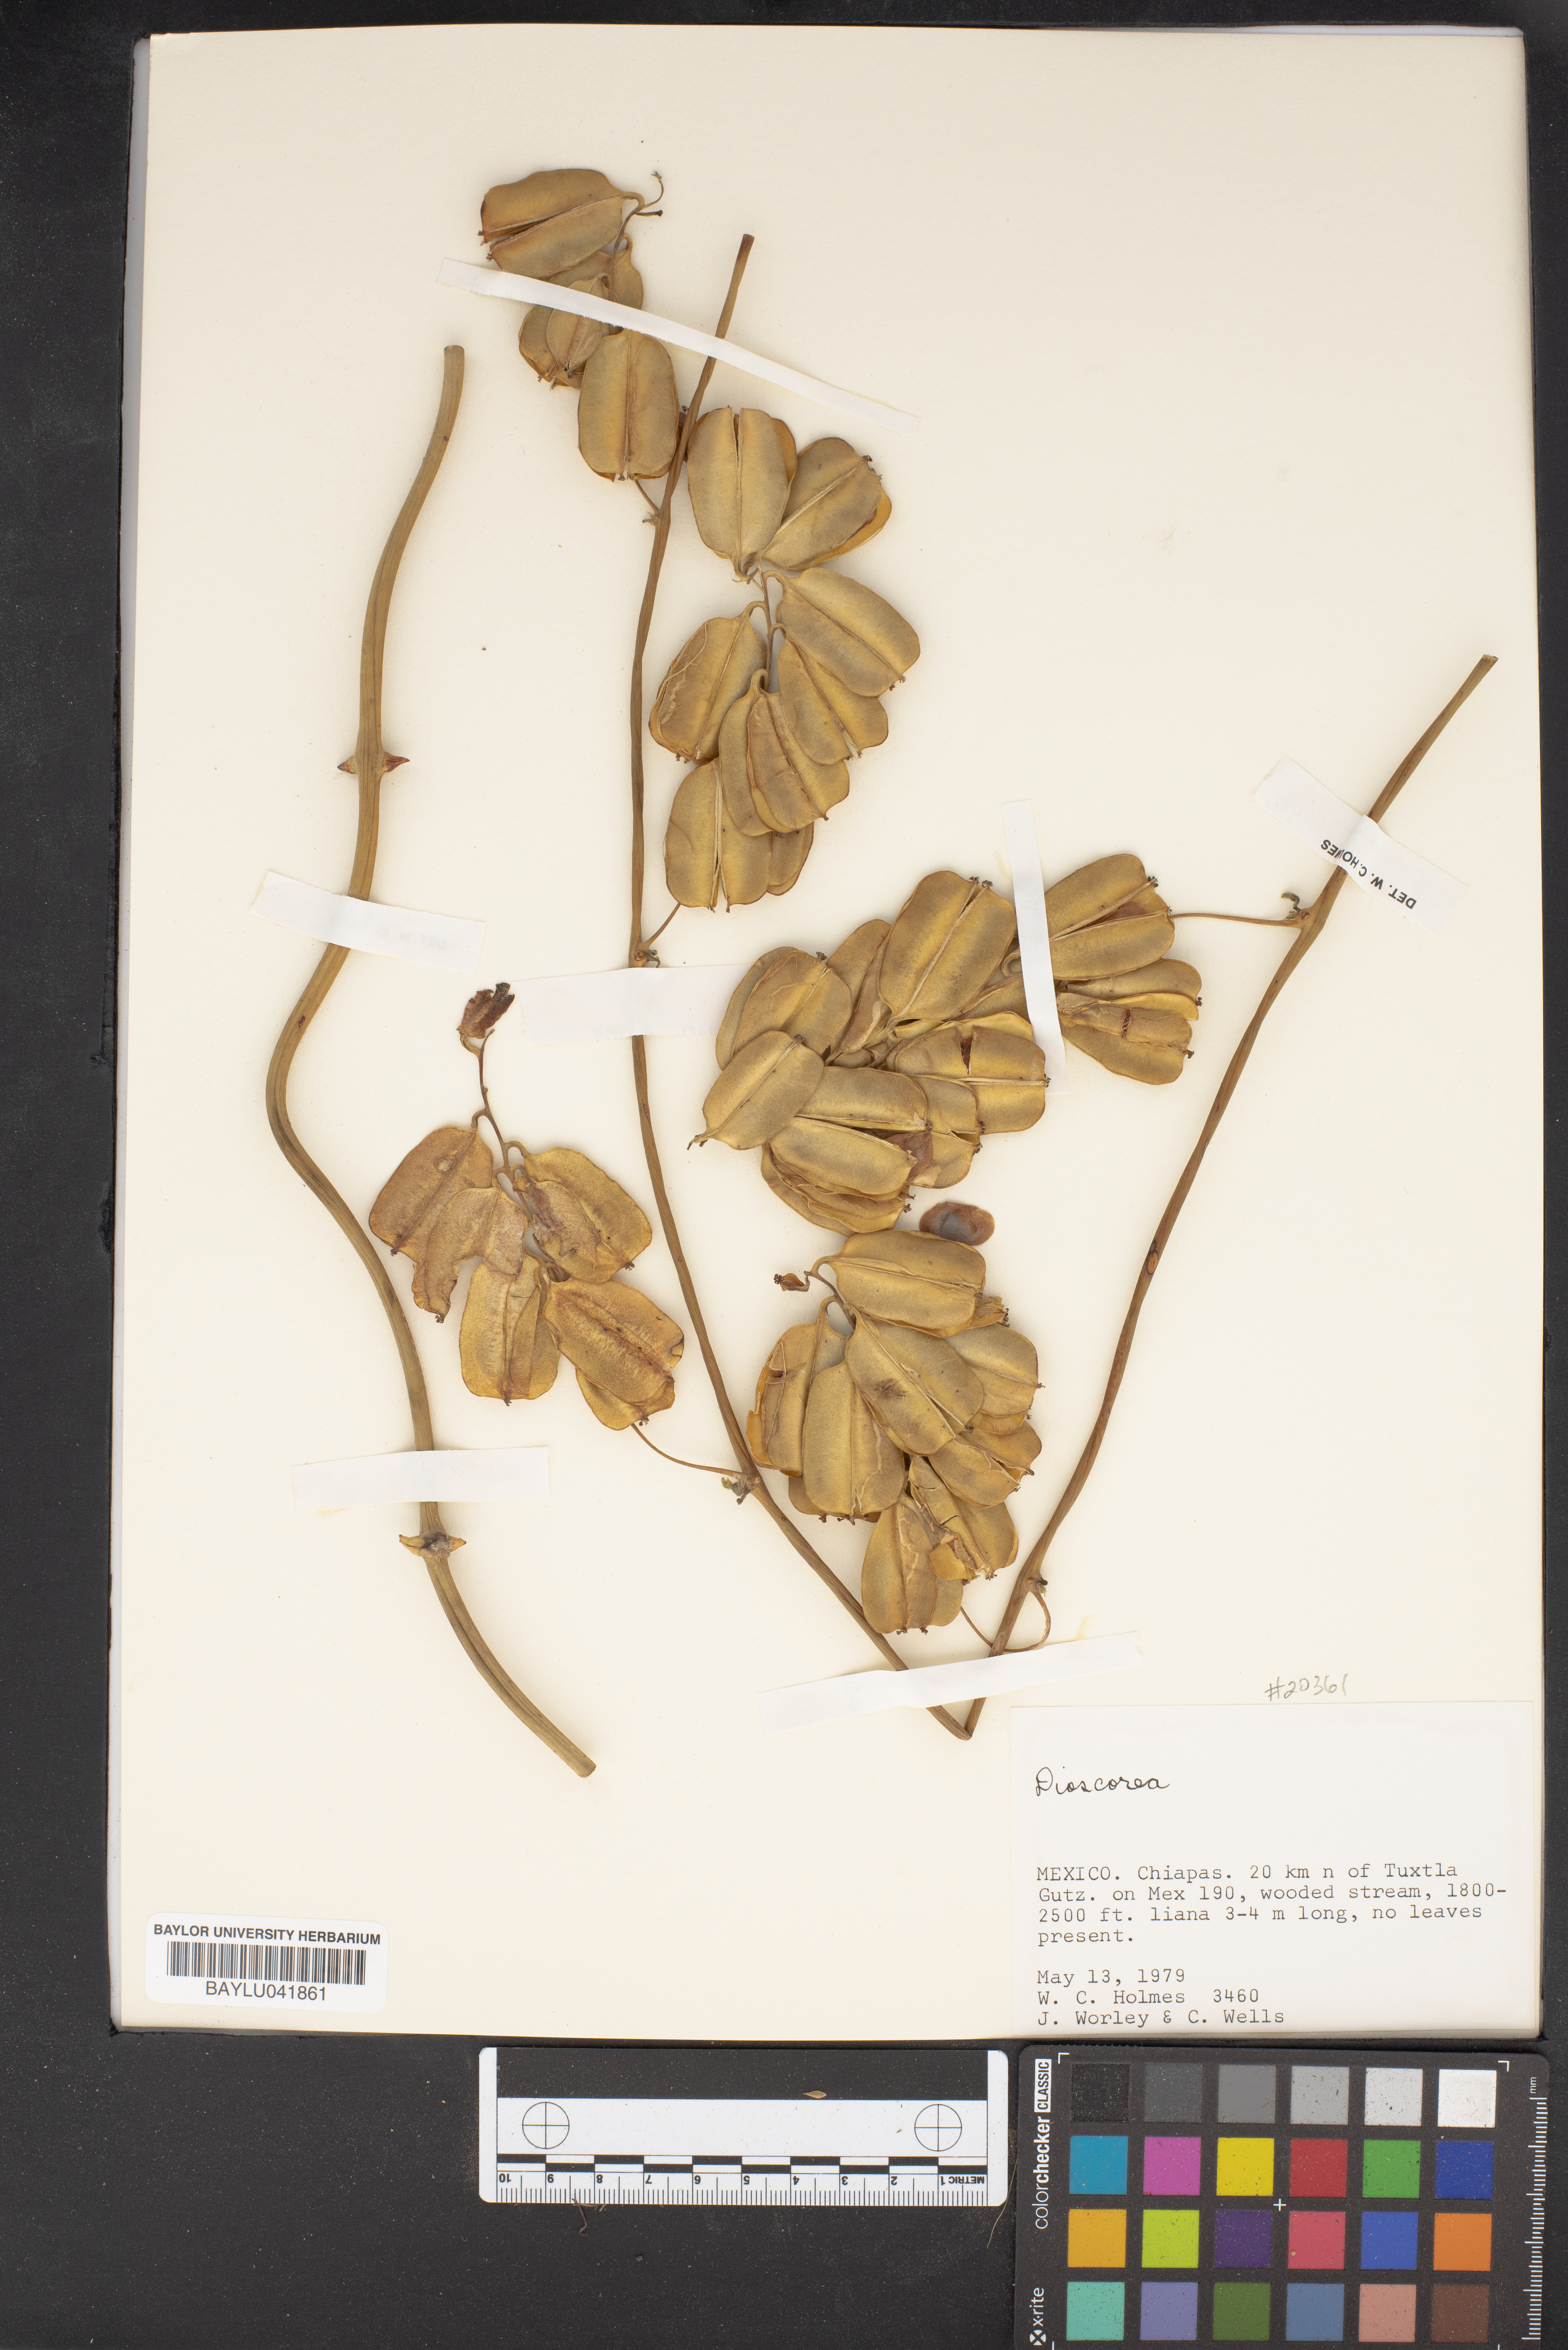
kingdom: Plantae
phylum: Tracheophyta
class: Liliopsida
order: Dioscoreales
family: Dioscoreaceae
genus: Dioscorea
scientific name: Dioscorea
